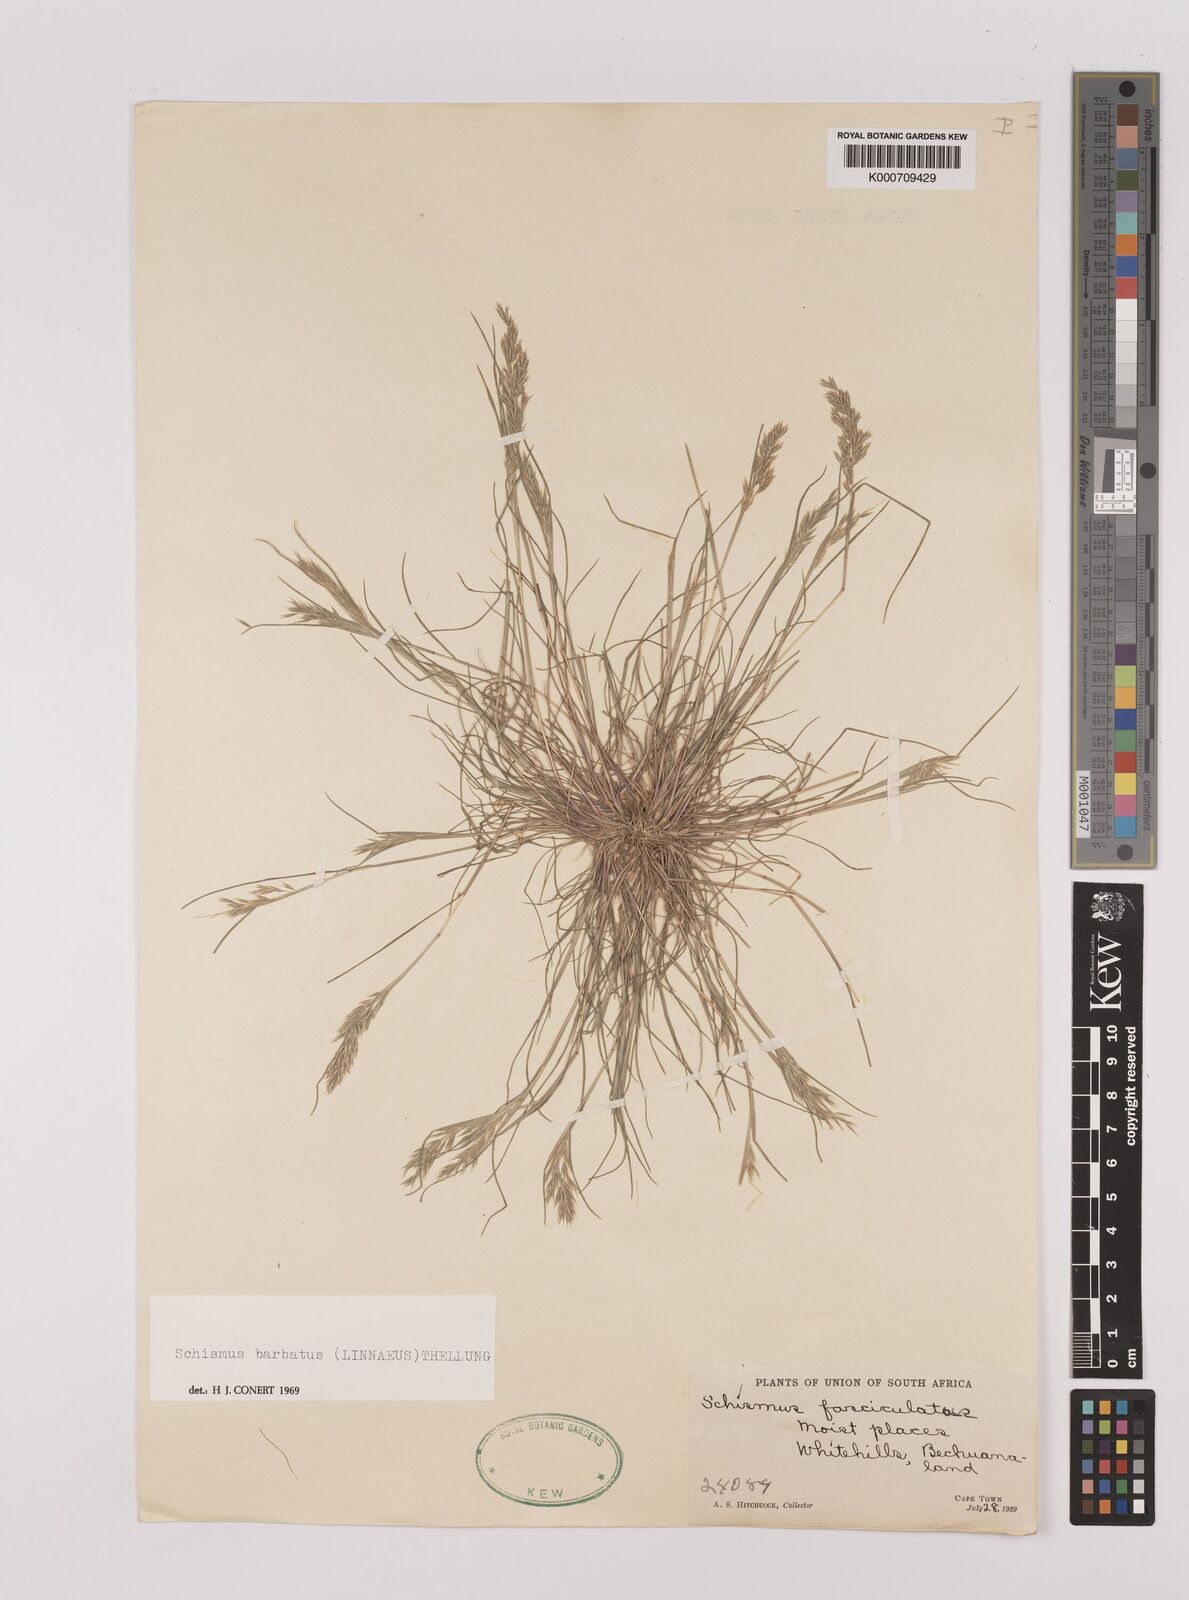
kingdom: Plantae
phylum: Tracheophyta
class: Liliopsida
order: Poales
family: Poaceae
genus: Schismus
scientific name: Schismus barbatus
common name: Kelch-grass
